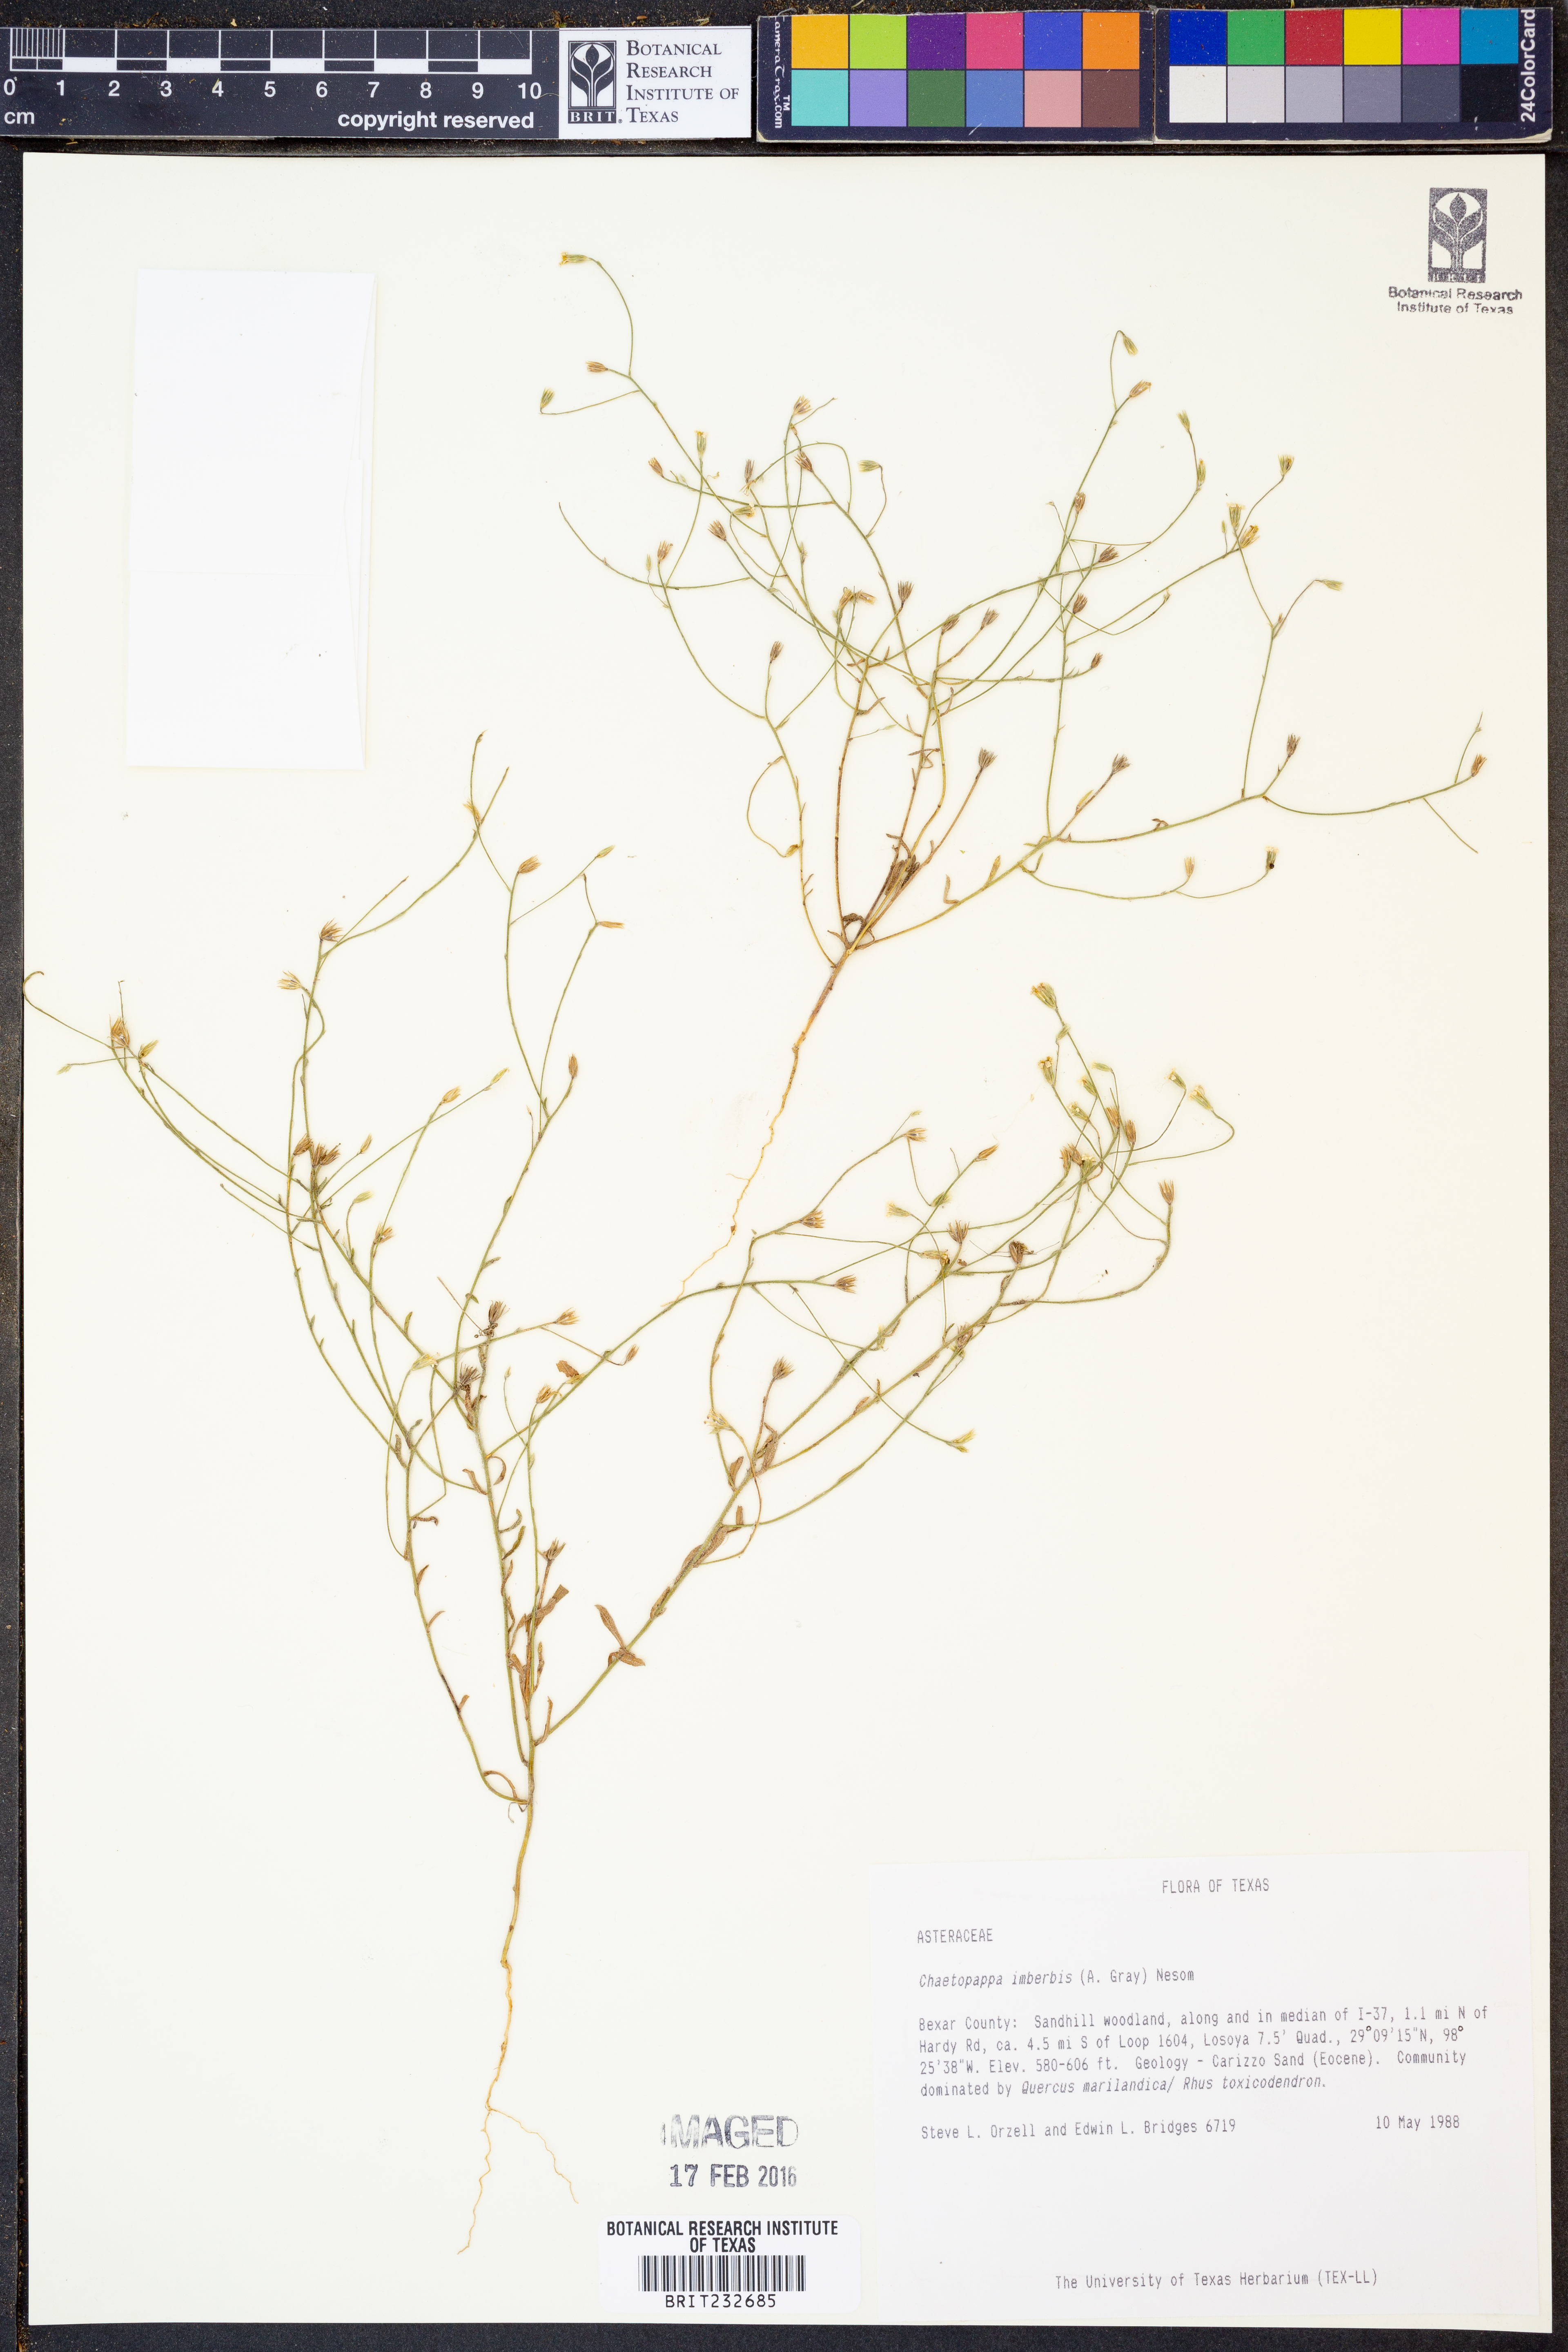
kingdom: Plantae
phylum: Tracheophyta
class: Magnoliopsida
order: Asterales
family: Asteraceae
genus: Chaetopappa
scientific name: Chaetopappa imberbis
